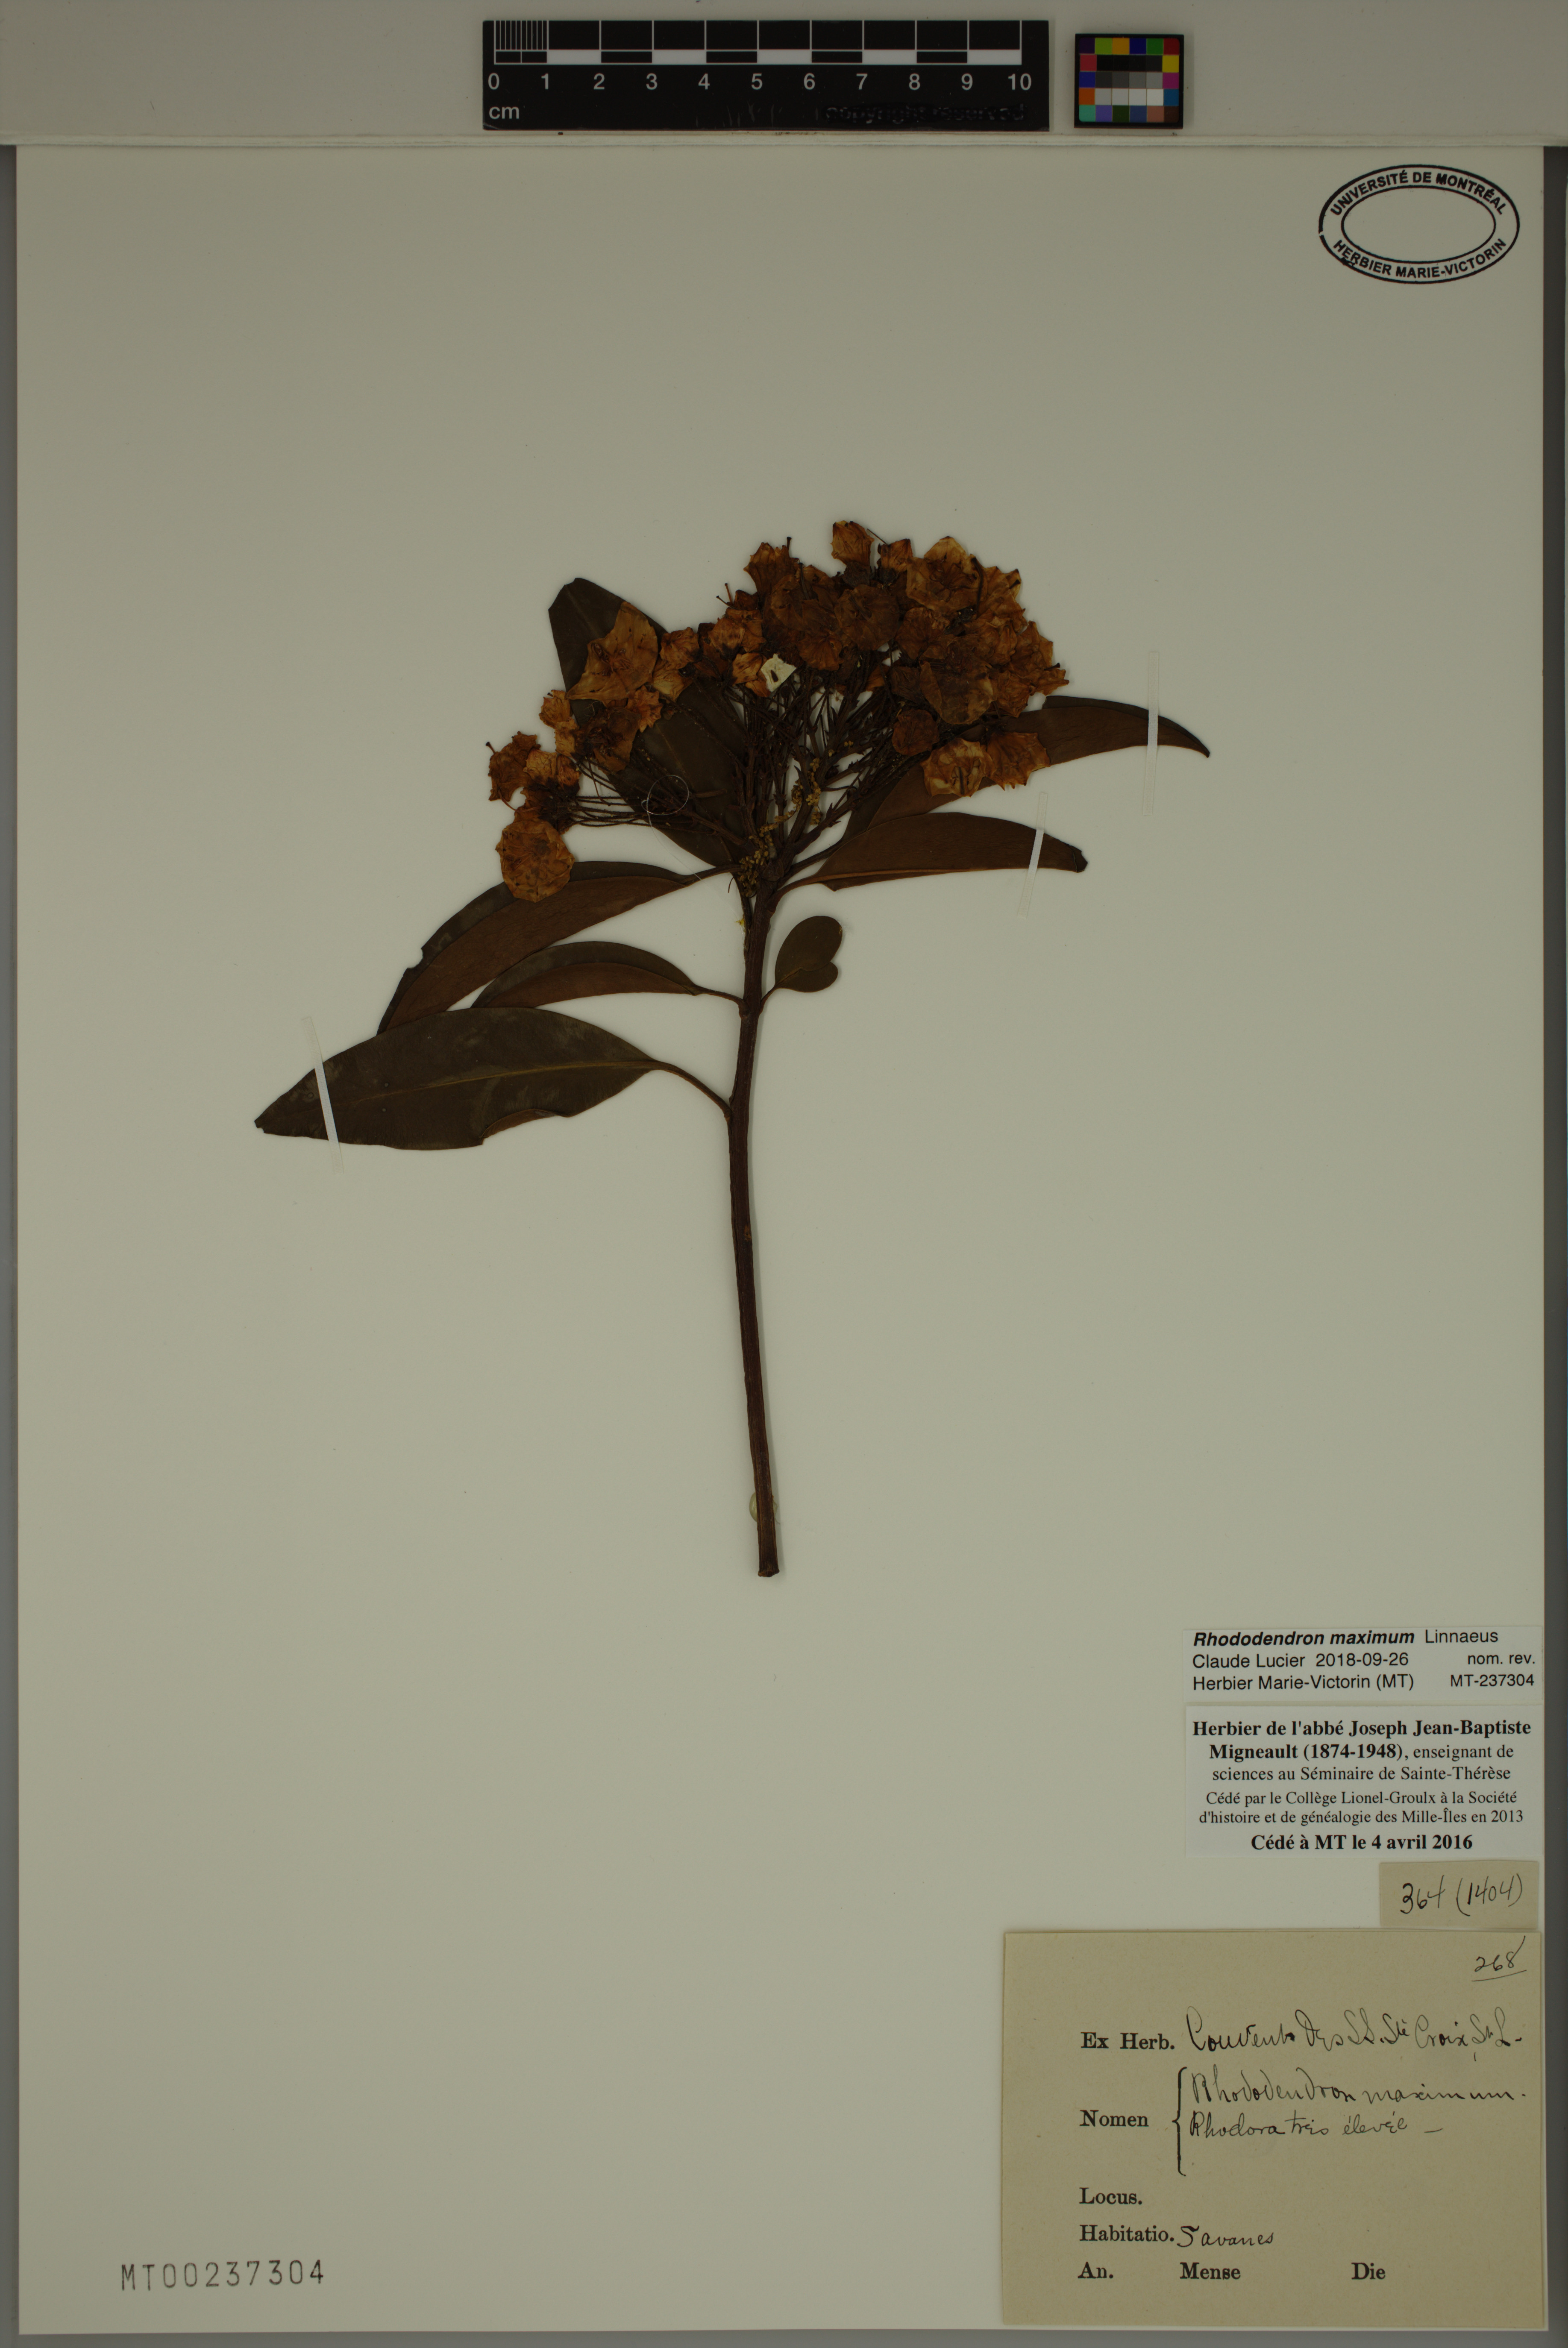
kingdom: Plantae
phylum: Tracheophyta
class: Magnoliopsida
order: Ericales
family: Ericaceae
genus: Rhododendron
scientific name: Rhododendron maximum
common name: Great rhododendron
